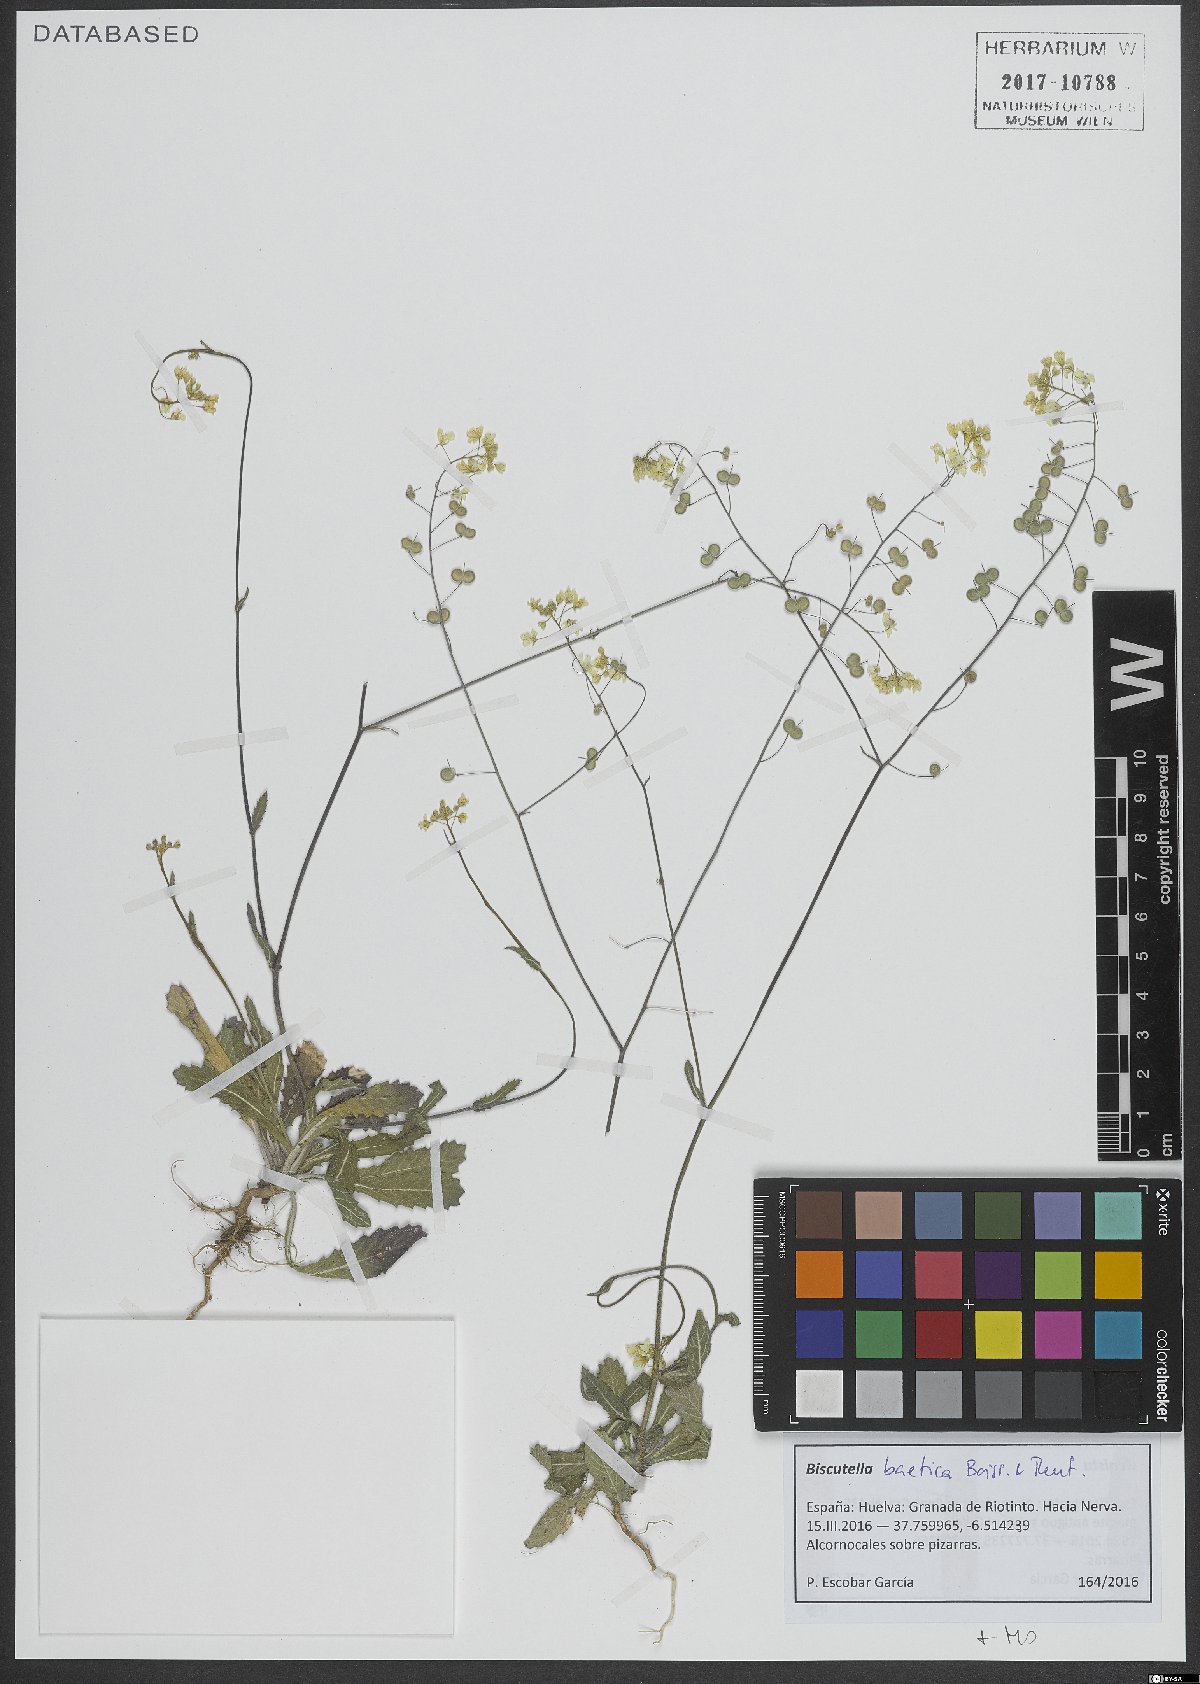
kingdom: Plantae
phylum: Tracheophyta
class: Magnoliopsida
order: Brassicales
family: Brassicaceae
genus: Biscutella
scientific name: Biscutella baetica
